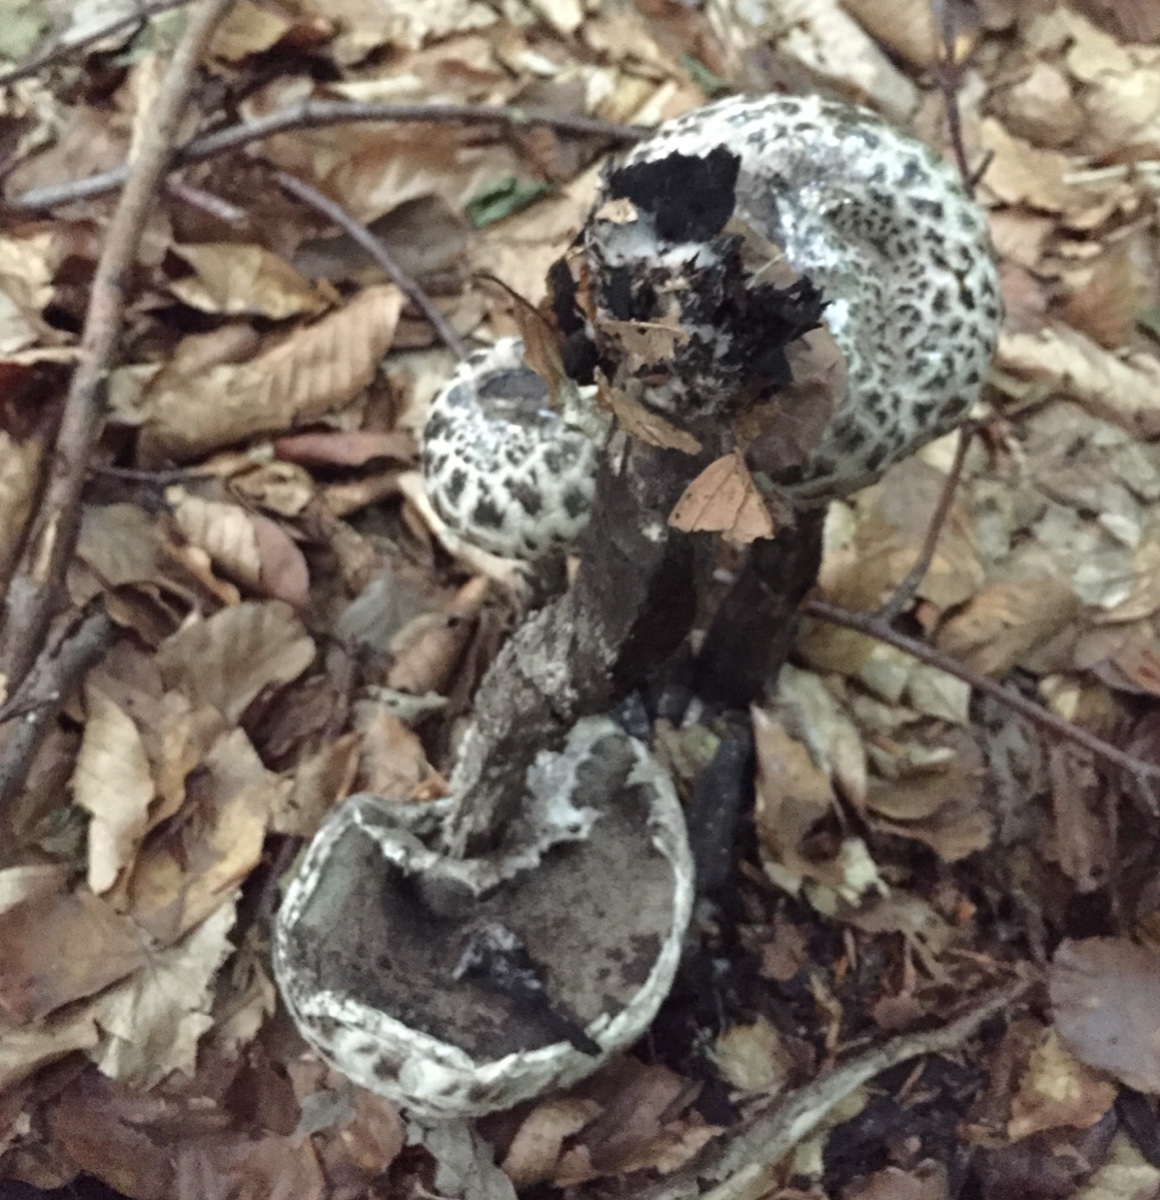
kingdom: Fungi
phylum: Basidiomycota
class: Agaricomycetes
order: Boletales
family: Boletaceae
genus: Strobilomyces
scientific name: Strobilomyces strobilaceus
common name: koglerørhat
